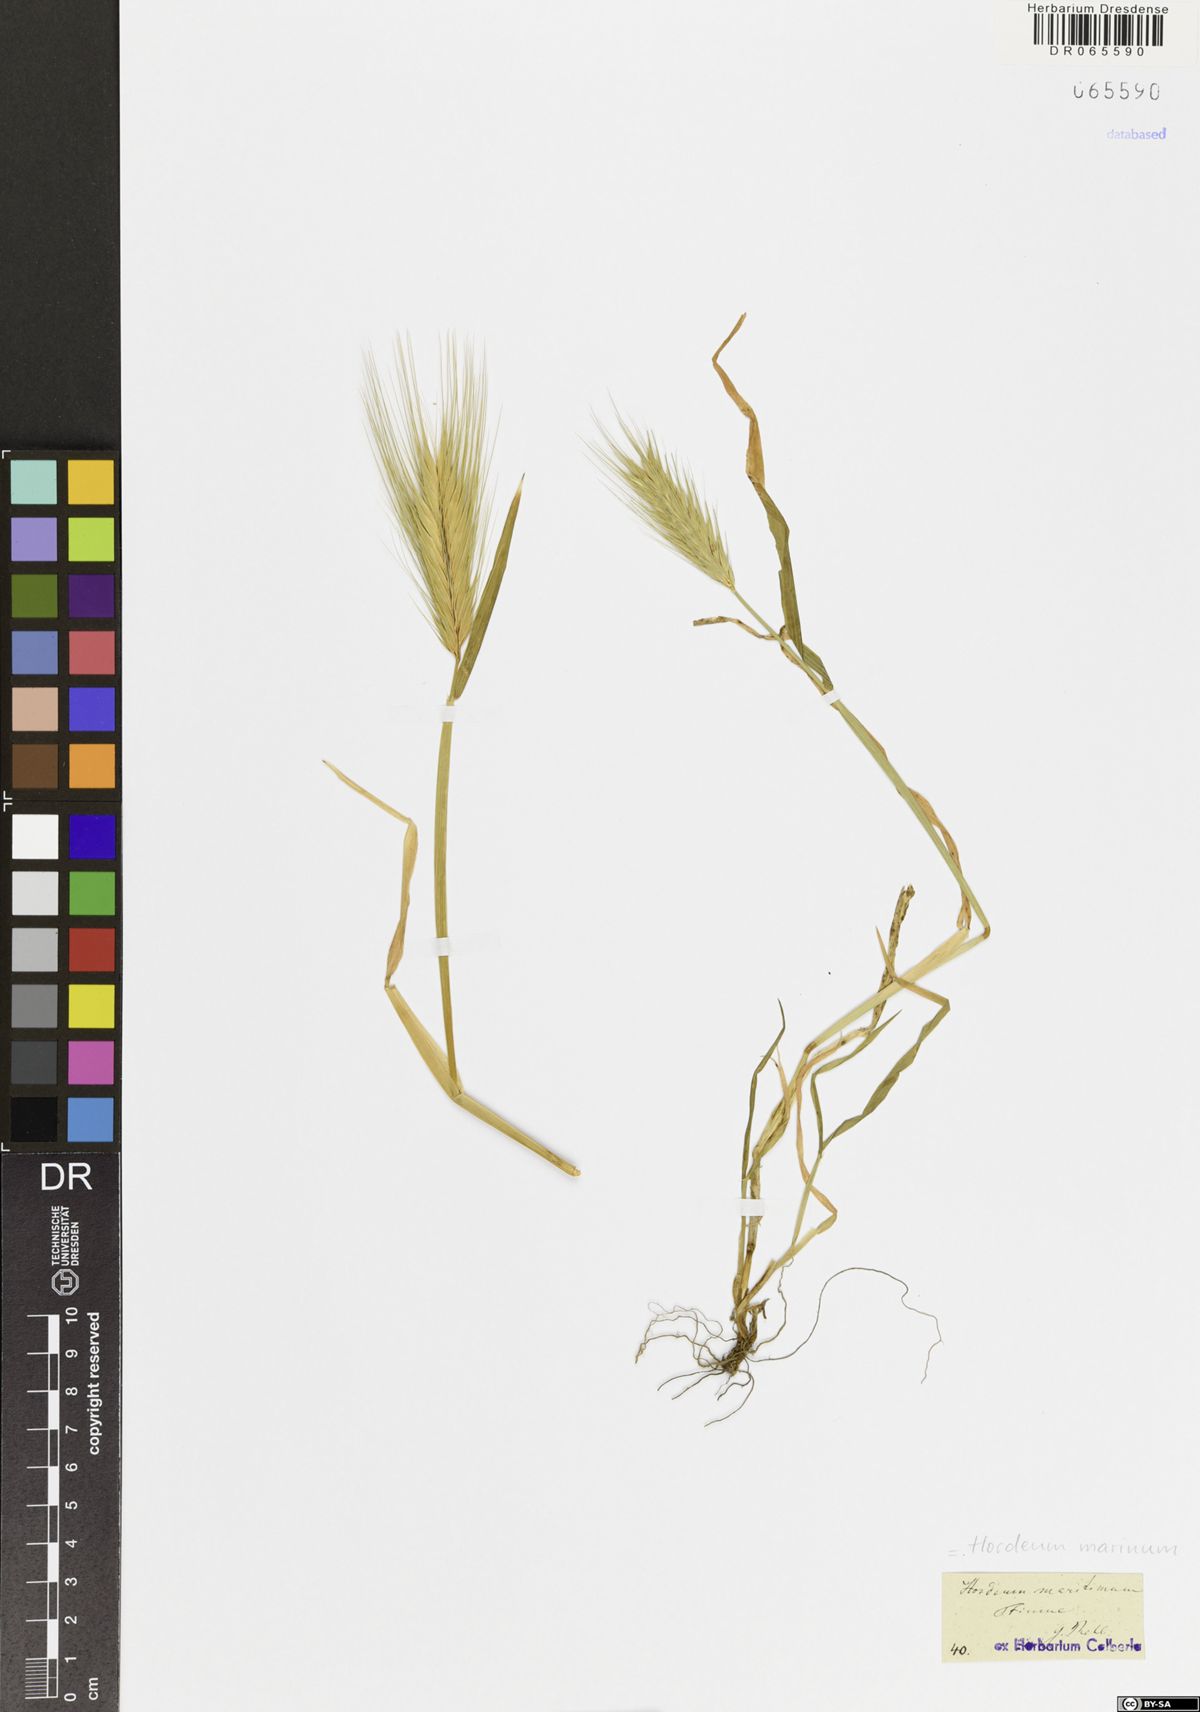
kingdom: Plantae
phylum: Tracheophyta
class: Liliopsida
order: Poales
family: Poaceae
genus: Hordeum
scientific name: Hordeum marinum
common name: Sea barley
